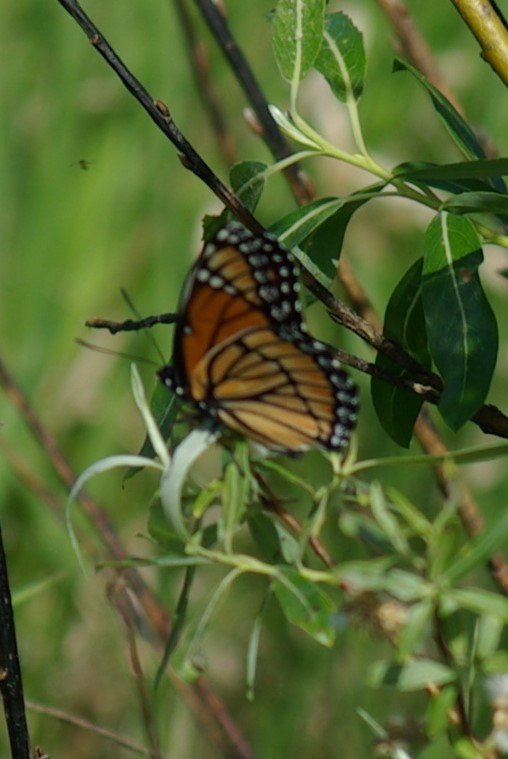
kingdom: Animalia
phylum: Arthropoda
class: Insecta
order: Lepidoptera
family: Nymphalidae
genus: Limenitis
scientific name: Limenitis archippus
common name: Viceroy
